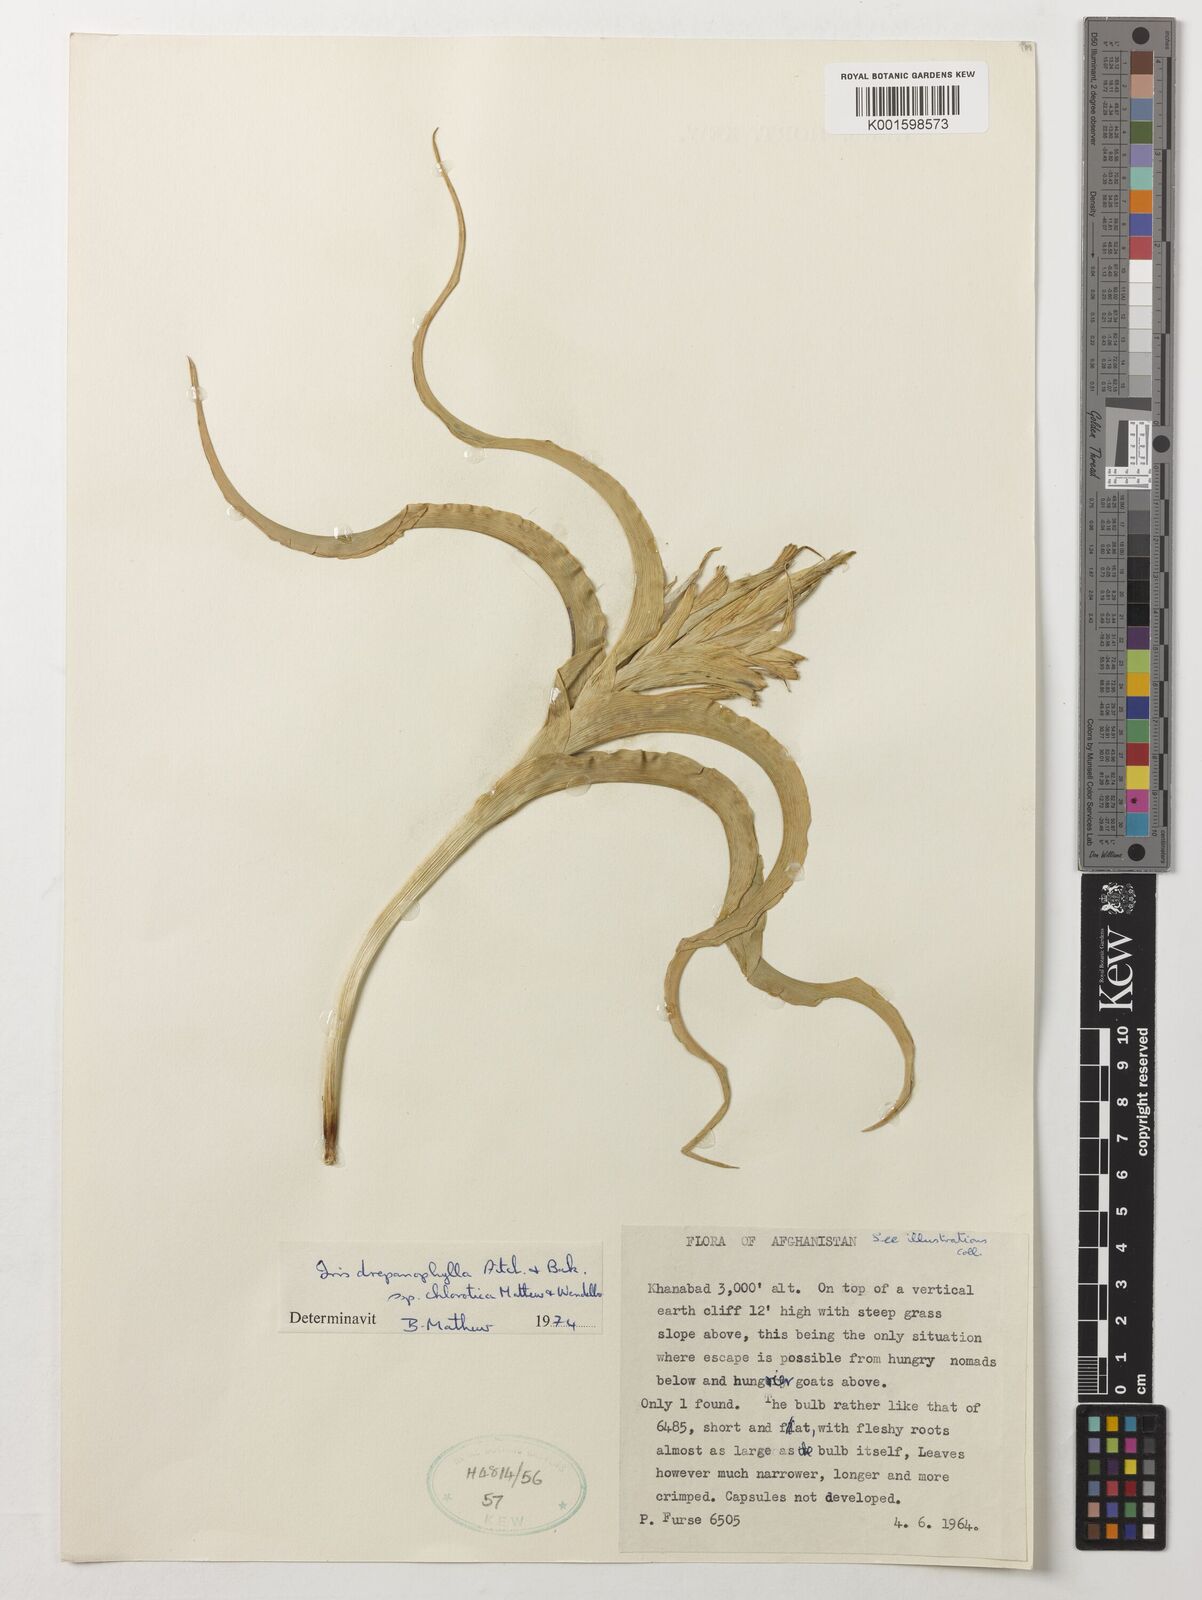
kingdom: Plantae
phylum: Tracheophyta
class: Liliopsida
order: Asparagales
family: Iridaceae
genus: Iris
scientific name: Iris drepanophylla
